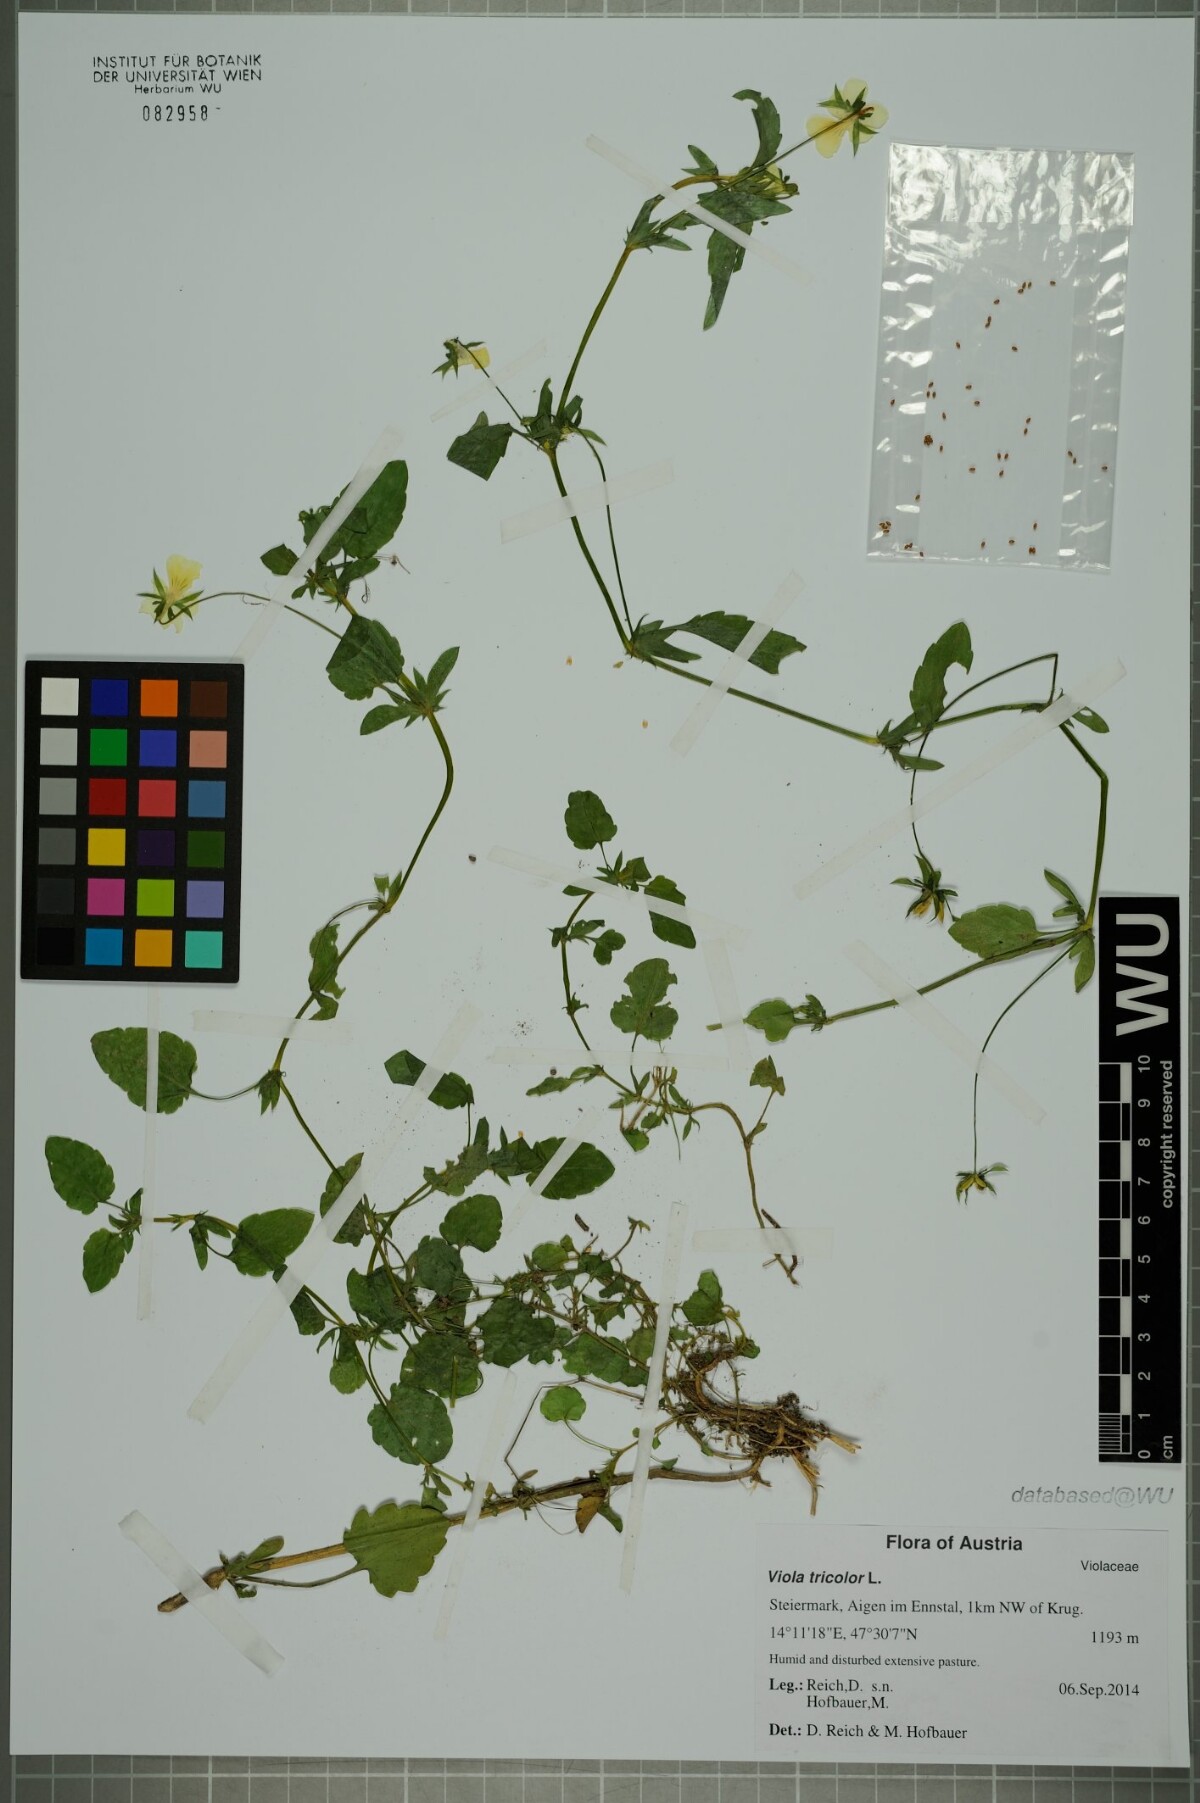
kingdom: Plantae
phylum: Tracheophyta
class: Magnoliopsida
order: Malpighiales
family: Violaceae
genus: Viola
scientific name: Viola tricolor
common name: Pansy
